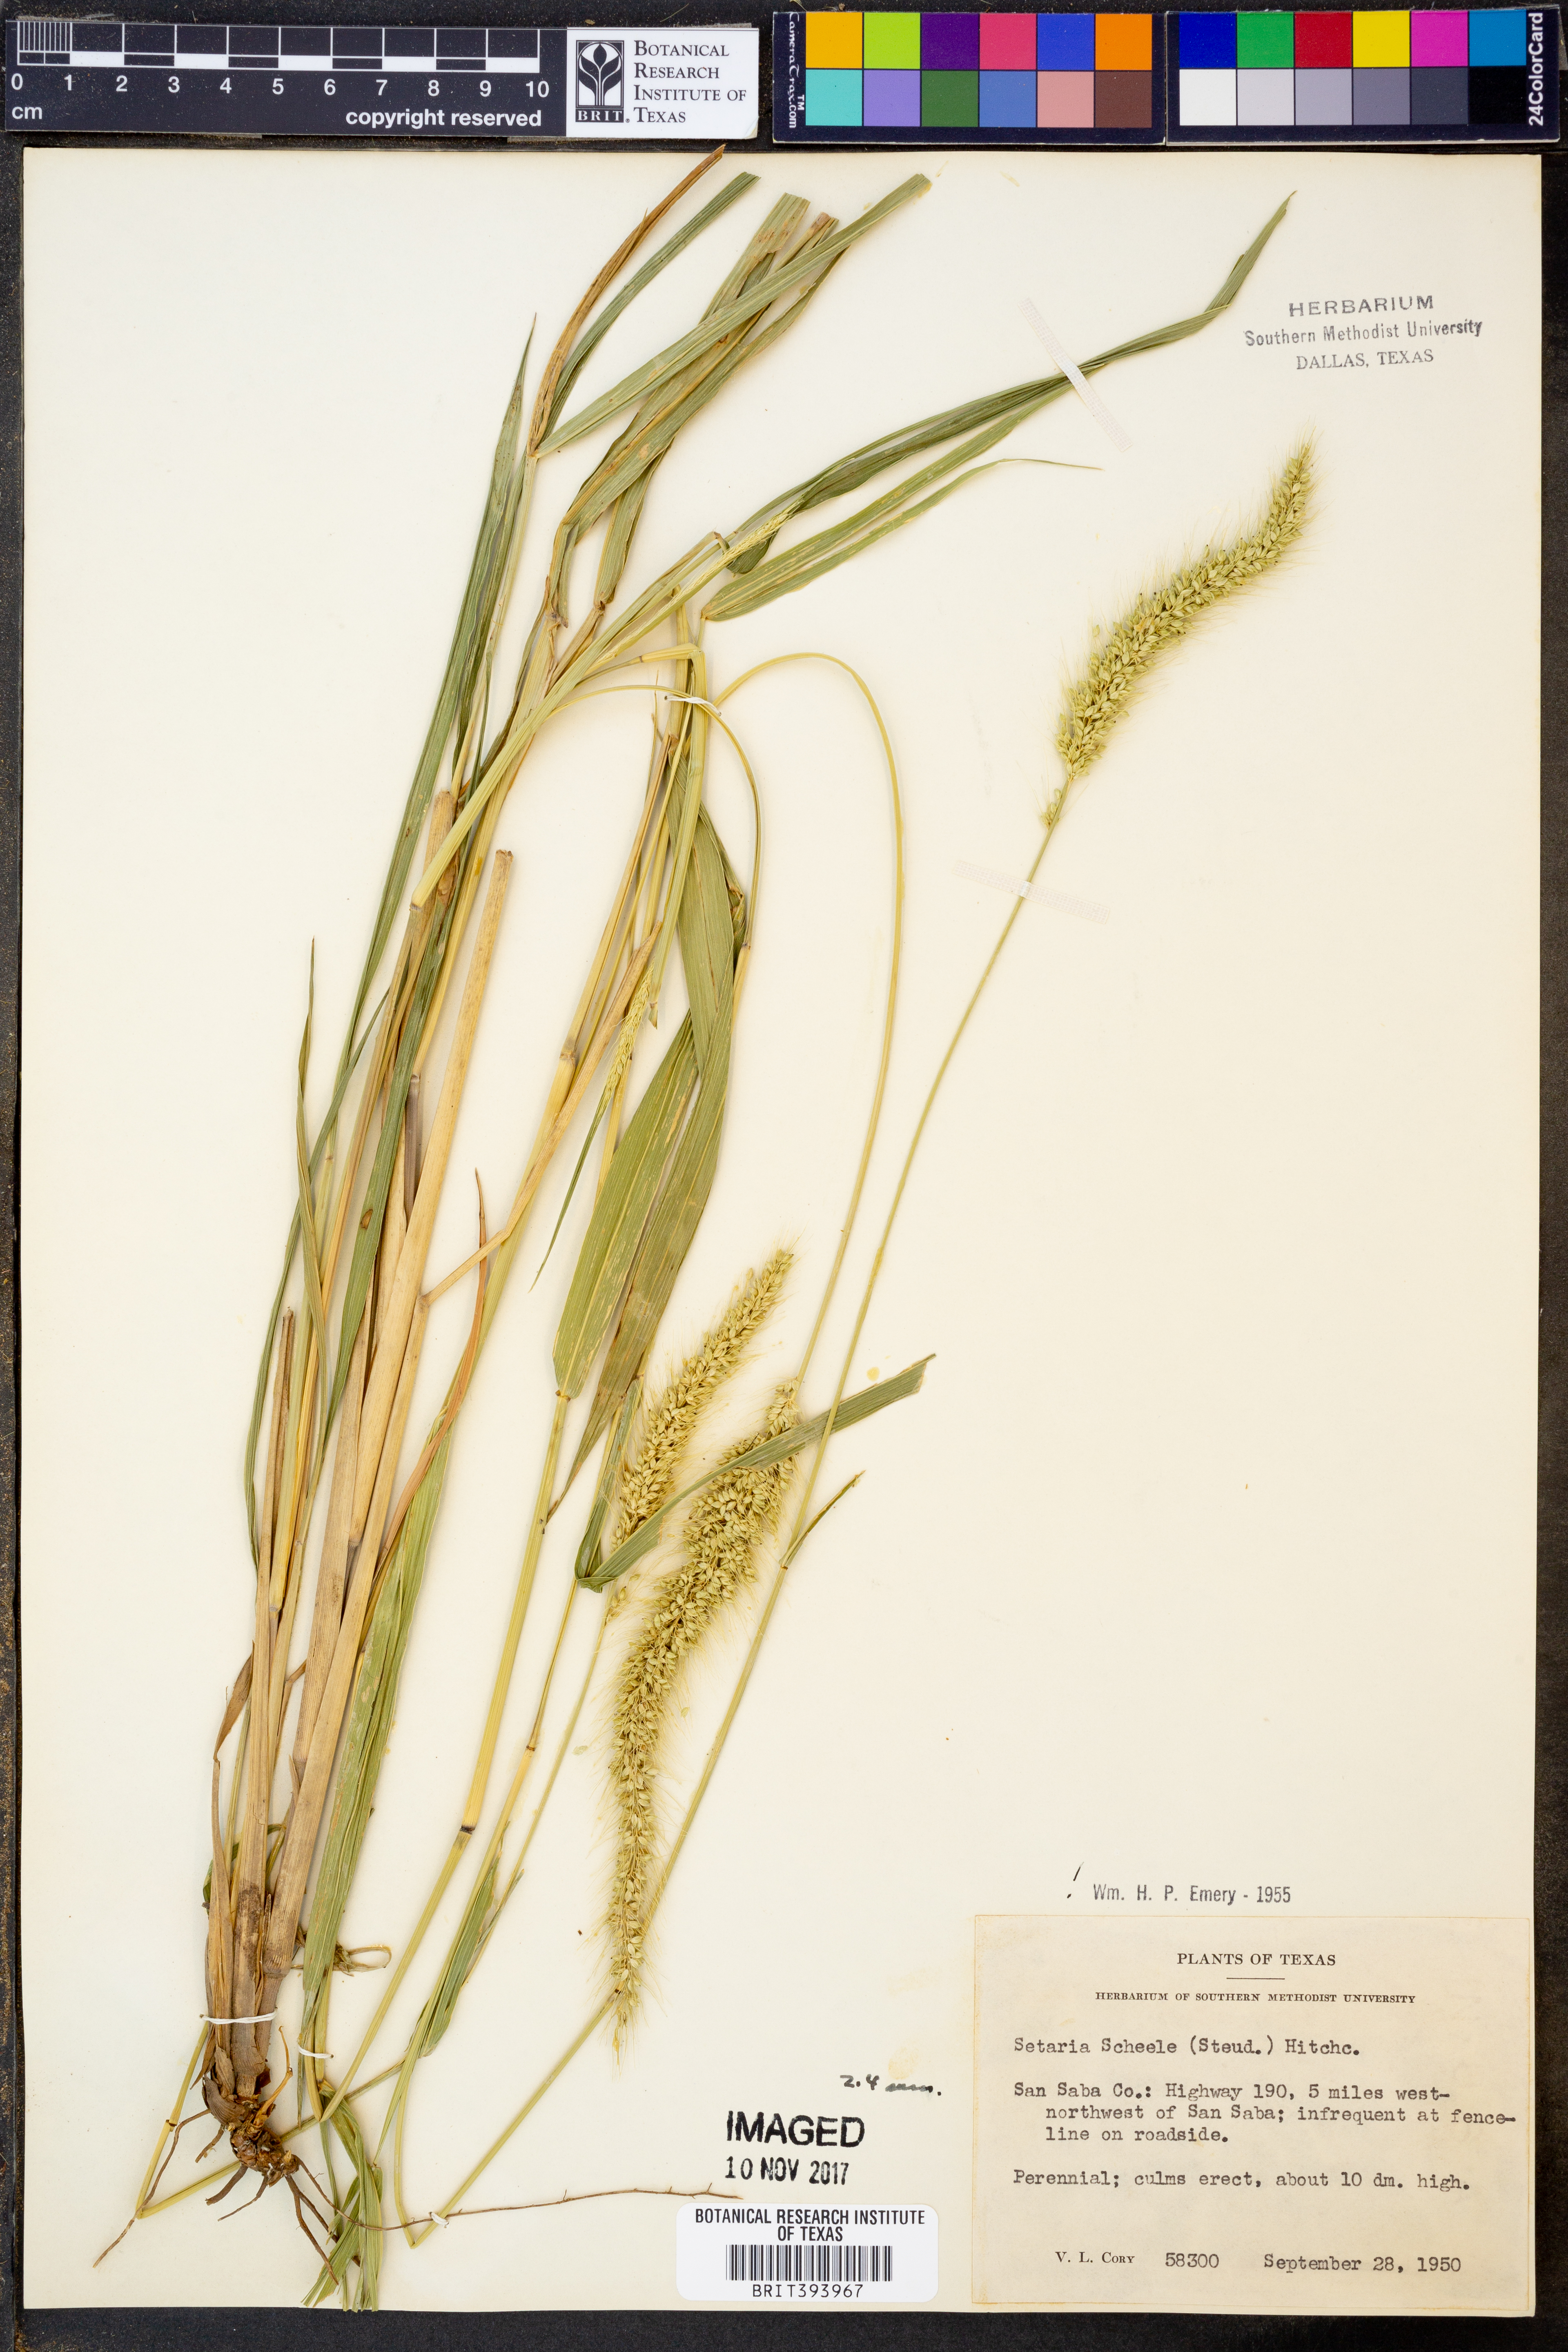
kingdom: Plantae
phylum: Tracheophyta
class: Liliopsida
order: Poales
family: Poaceae
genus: Setaria
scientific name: Setaria scheelei
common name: Southwestern bristle grass
